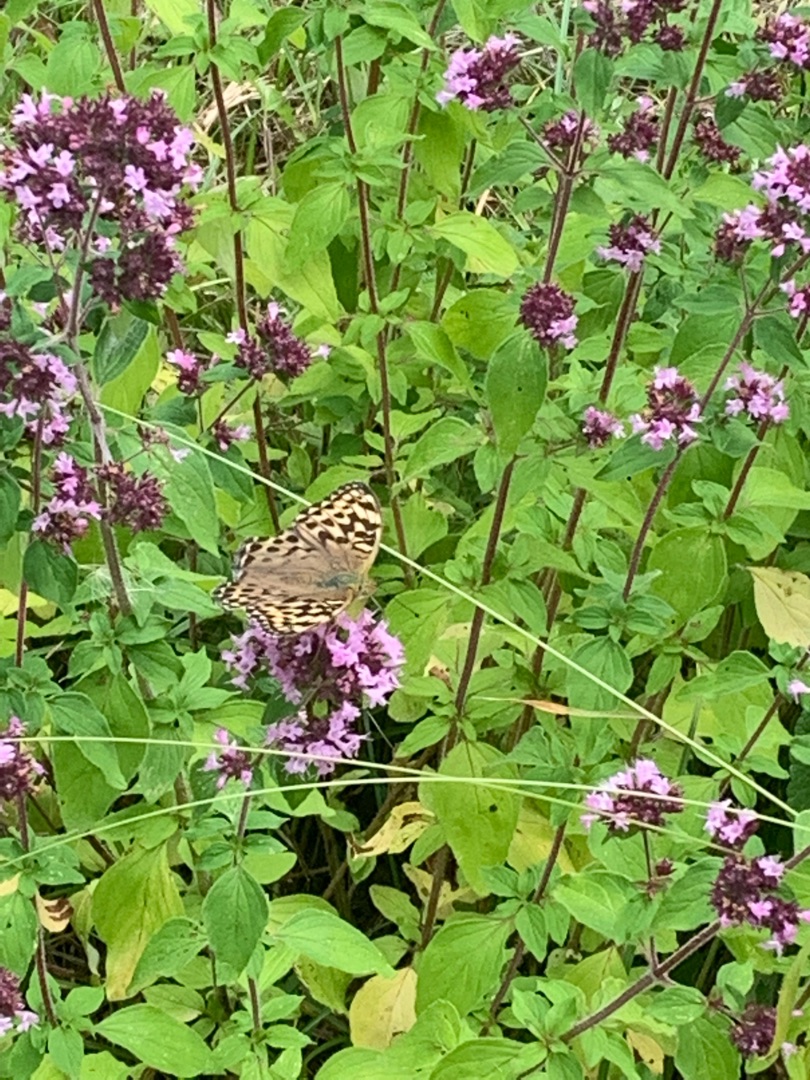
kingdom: Animalia
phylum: Arthropoda
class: Insecta
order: Lepidoptera
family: Nymphalidae
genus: Argynnis
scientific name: Argynnis paphia
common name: Kejserkåbe
